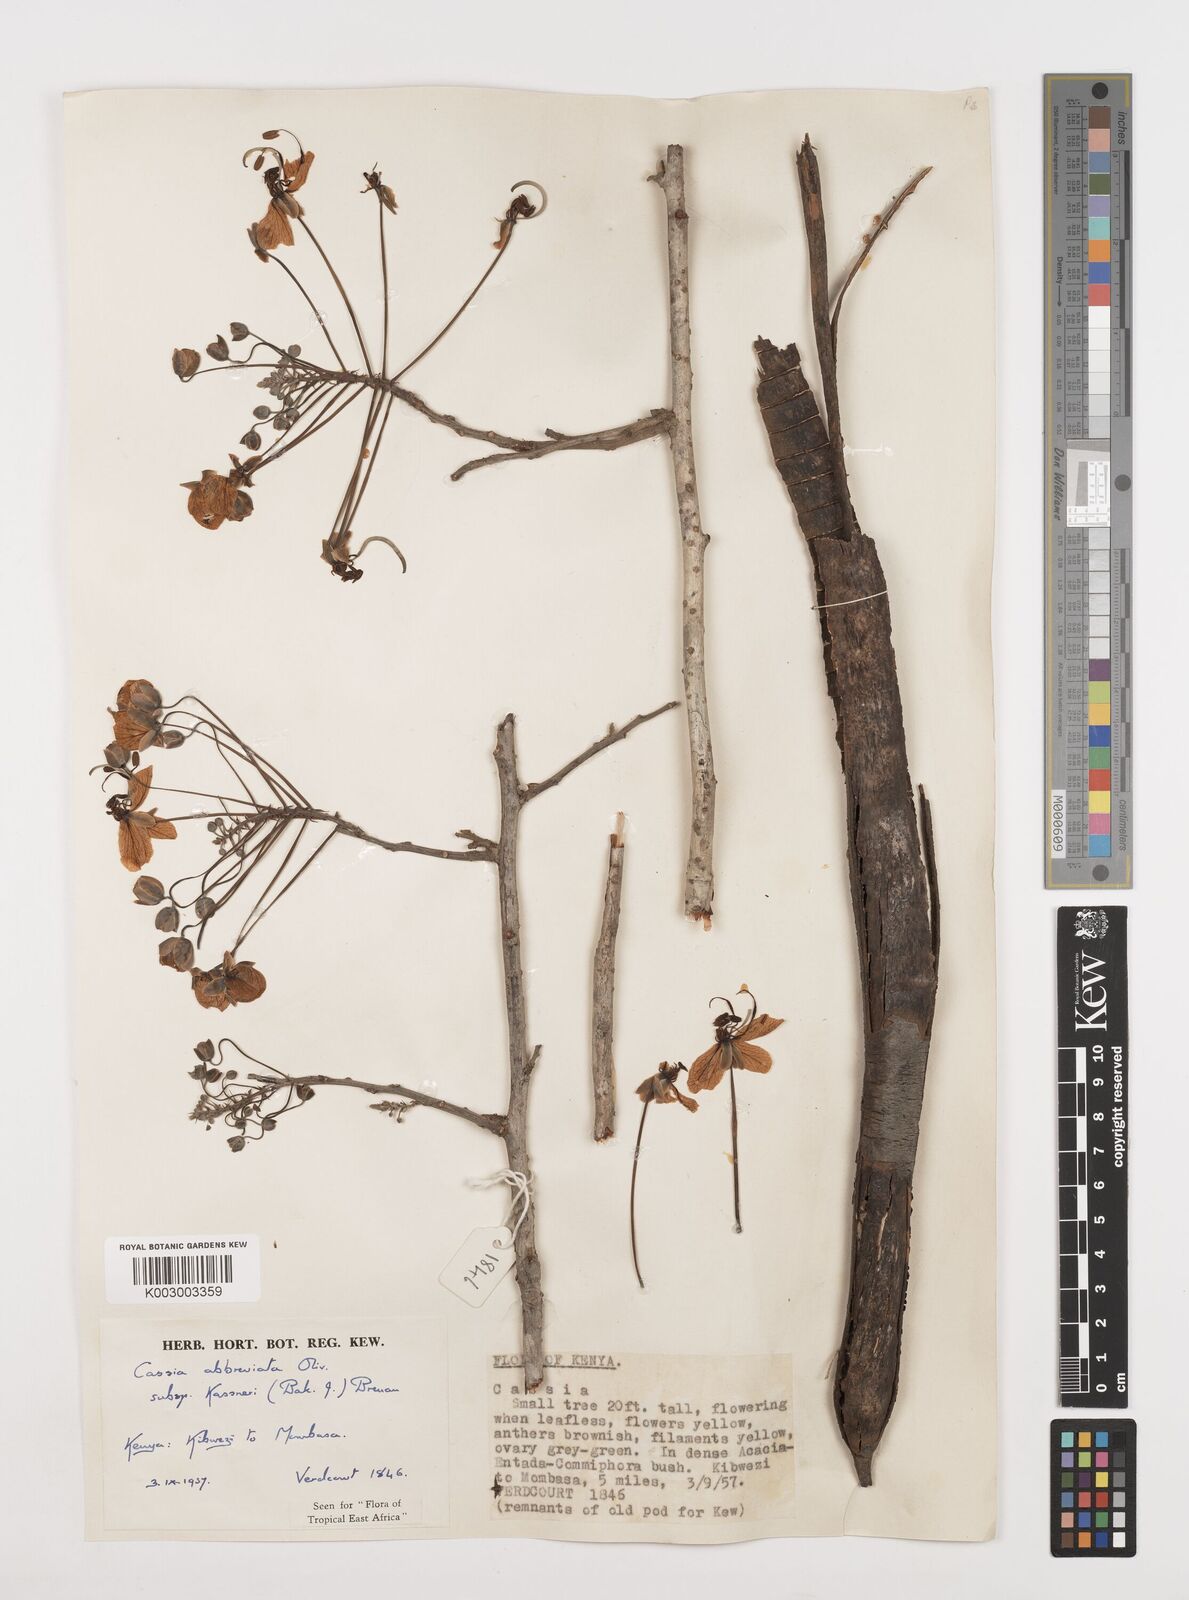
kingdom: Plantae
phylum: Tracheophyta
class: Magnoliopsida
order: Fabales
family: Fabaceae
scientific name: Fabaceae
